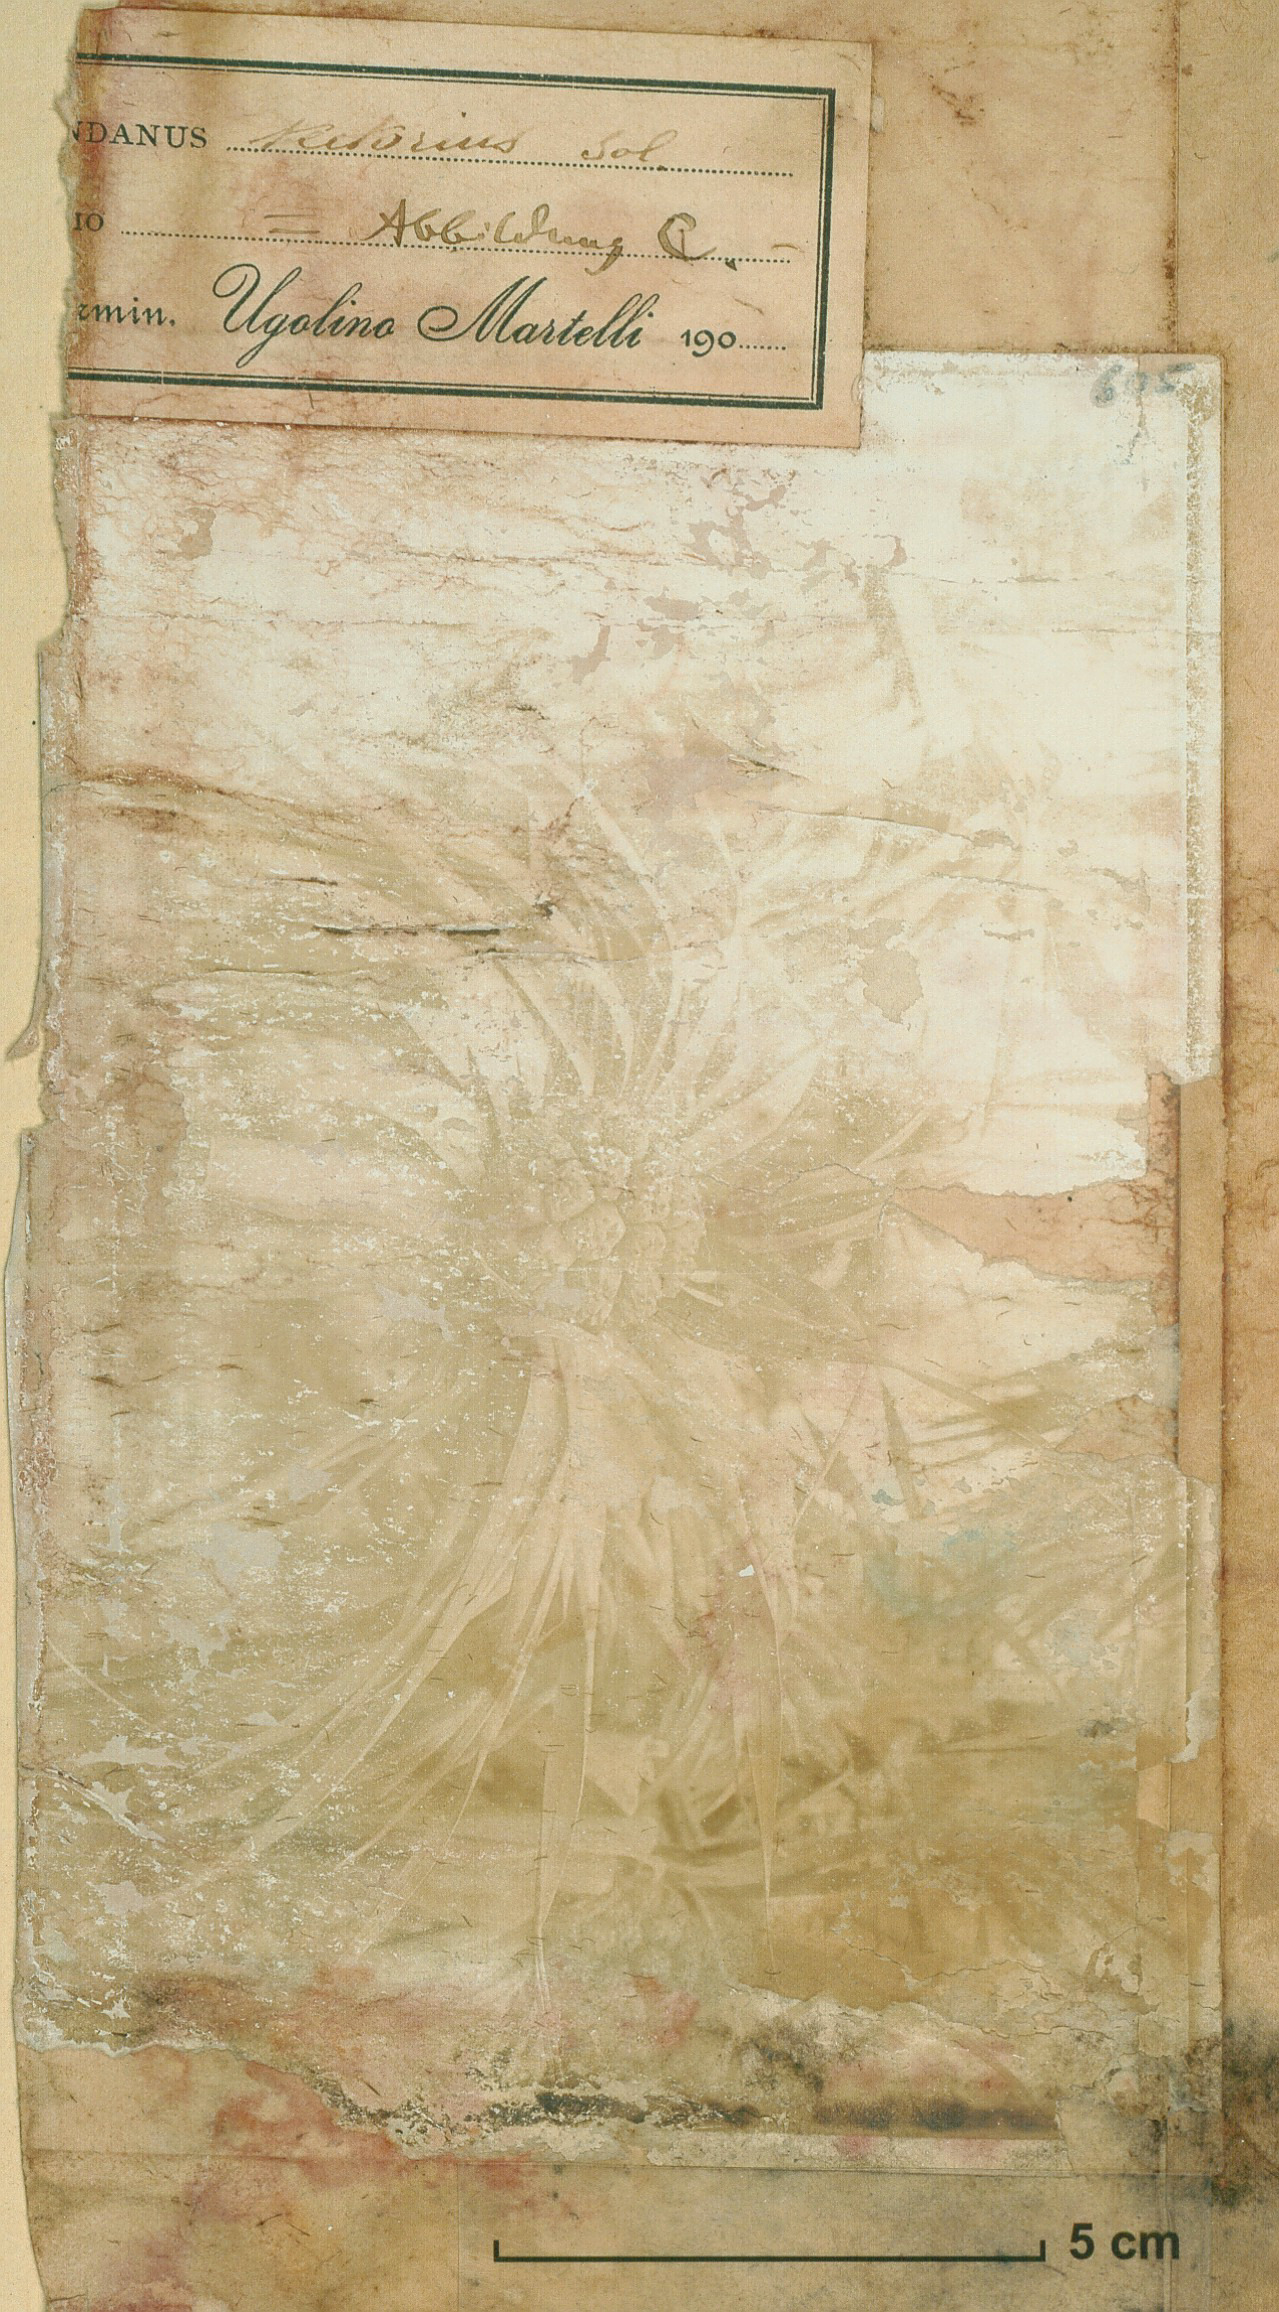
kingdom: Plantae
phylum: Tracheophyta
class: Liliopsida
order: Pandanales
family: Pandanaceae
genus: Pandanus
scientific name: Pandanus tectorius
